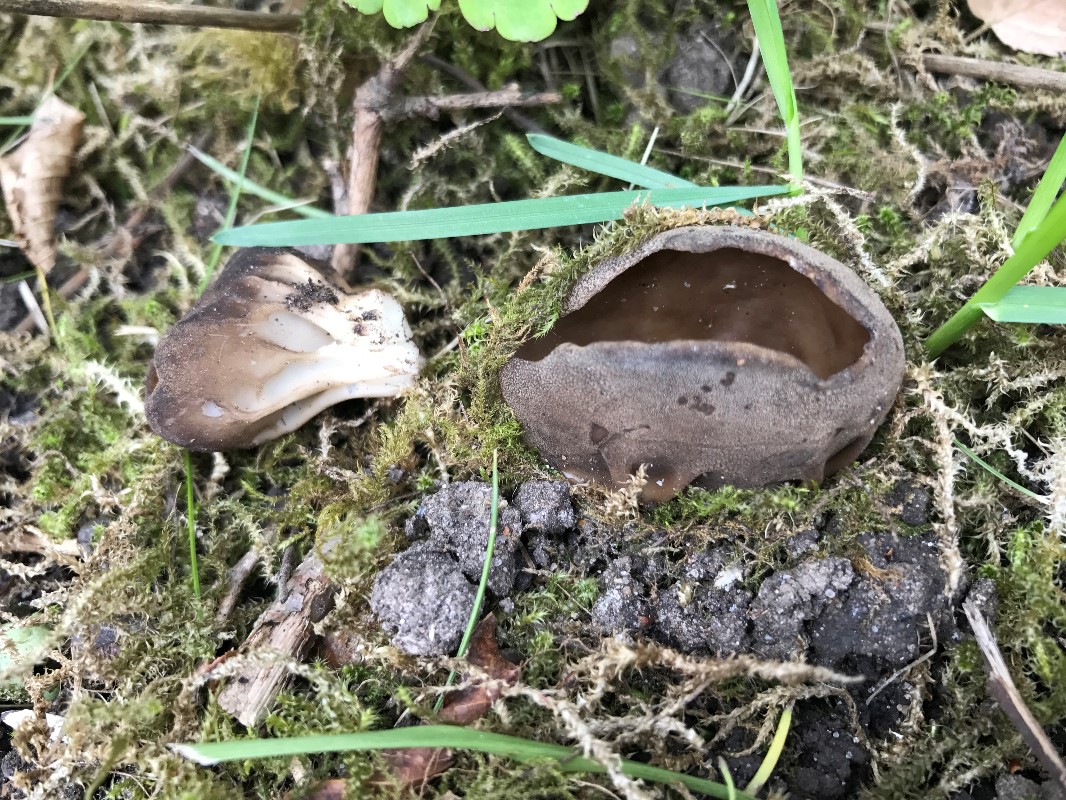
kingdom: Fungi
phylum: Ascomycota
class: Pezizomycetes
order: Pezizales
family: Helvellaceae
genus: Helvella
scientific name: Helvella acetabulum
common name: pokal-foldhat
